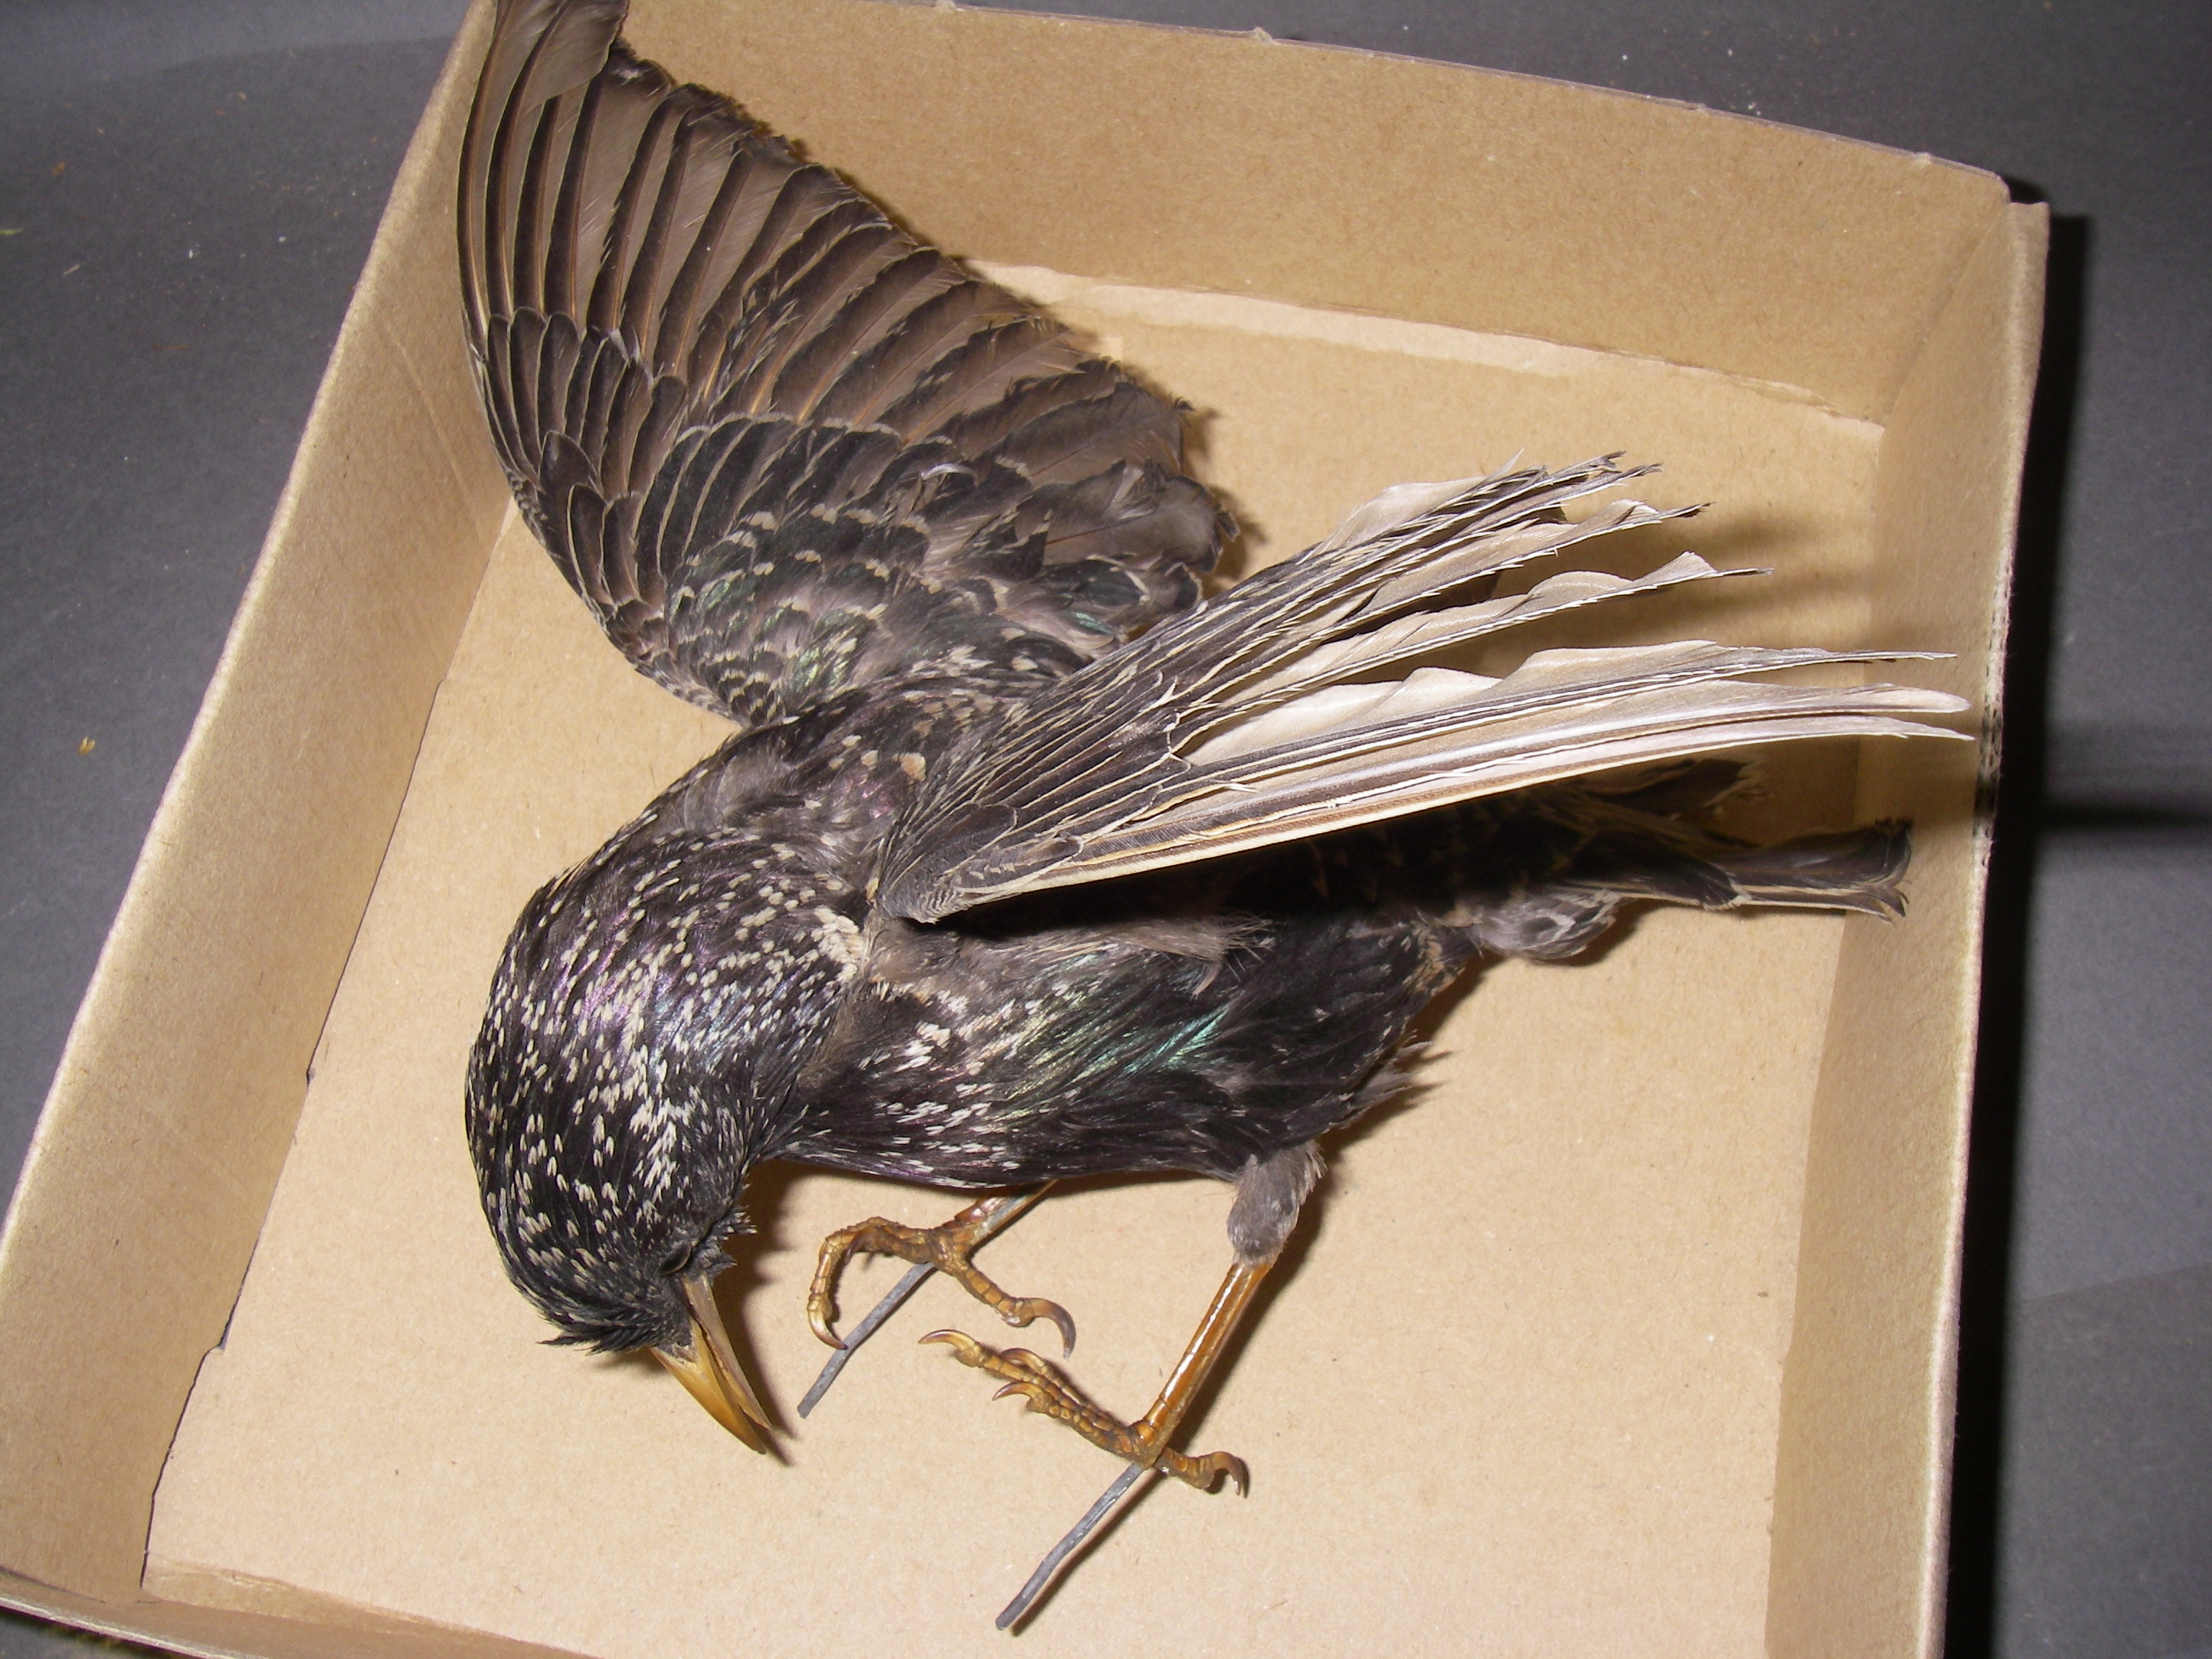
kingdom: Animalia
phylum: Chordata
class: Aves
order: Passeriformes
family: Sturnidae
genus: Sturnus
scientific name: Sturnus vulgaris
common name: Common starling
